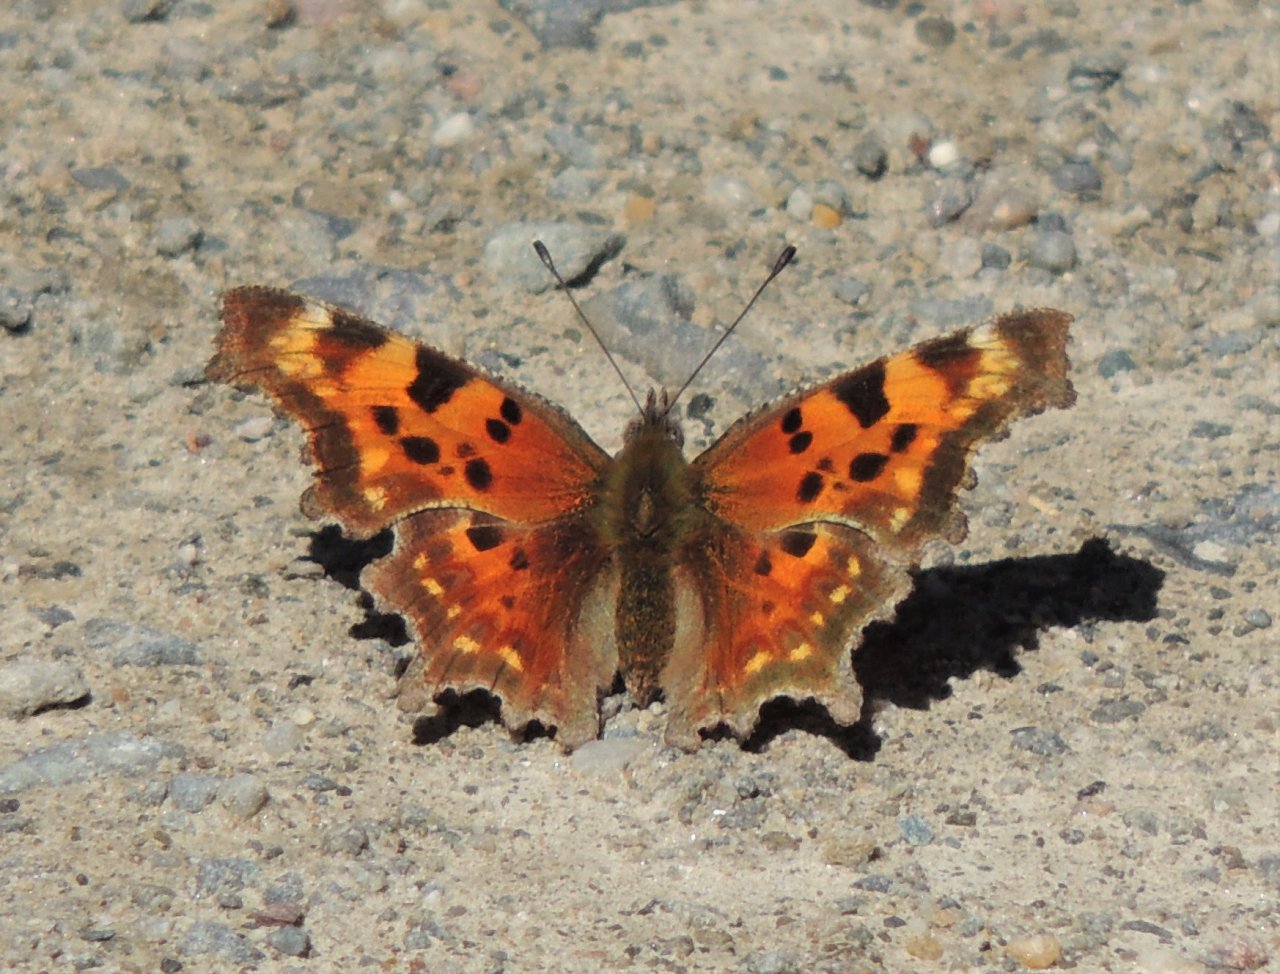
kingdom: Animalia
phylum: Arthropoda
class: Insecta
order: Lepidoptera
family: Nymphalidae
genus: Polygonia
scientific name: Polygonia faunus
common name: Green Comma
